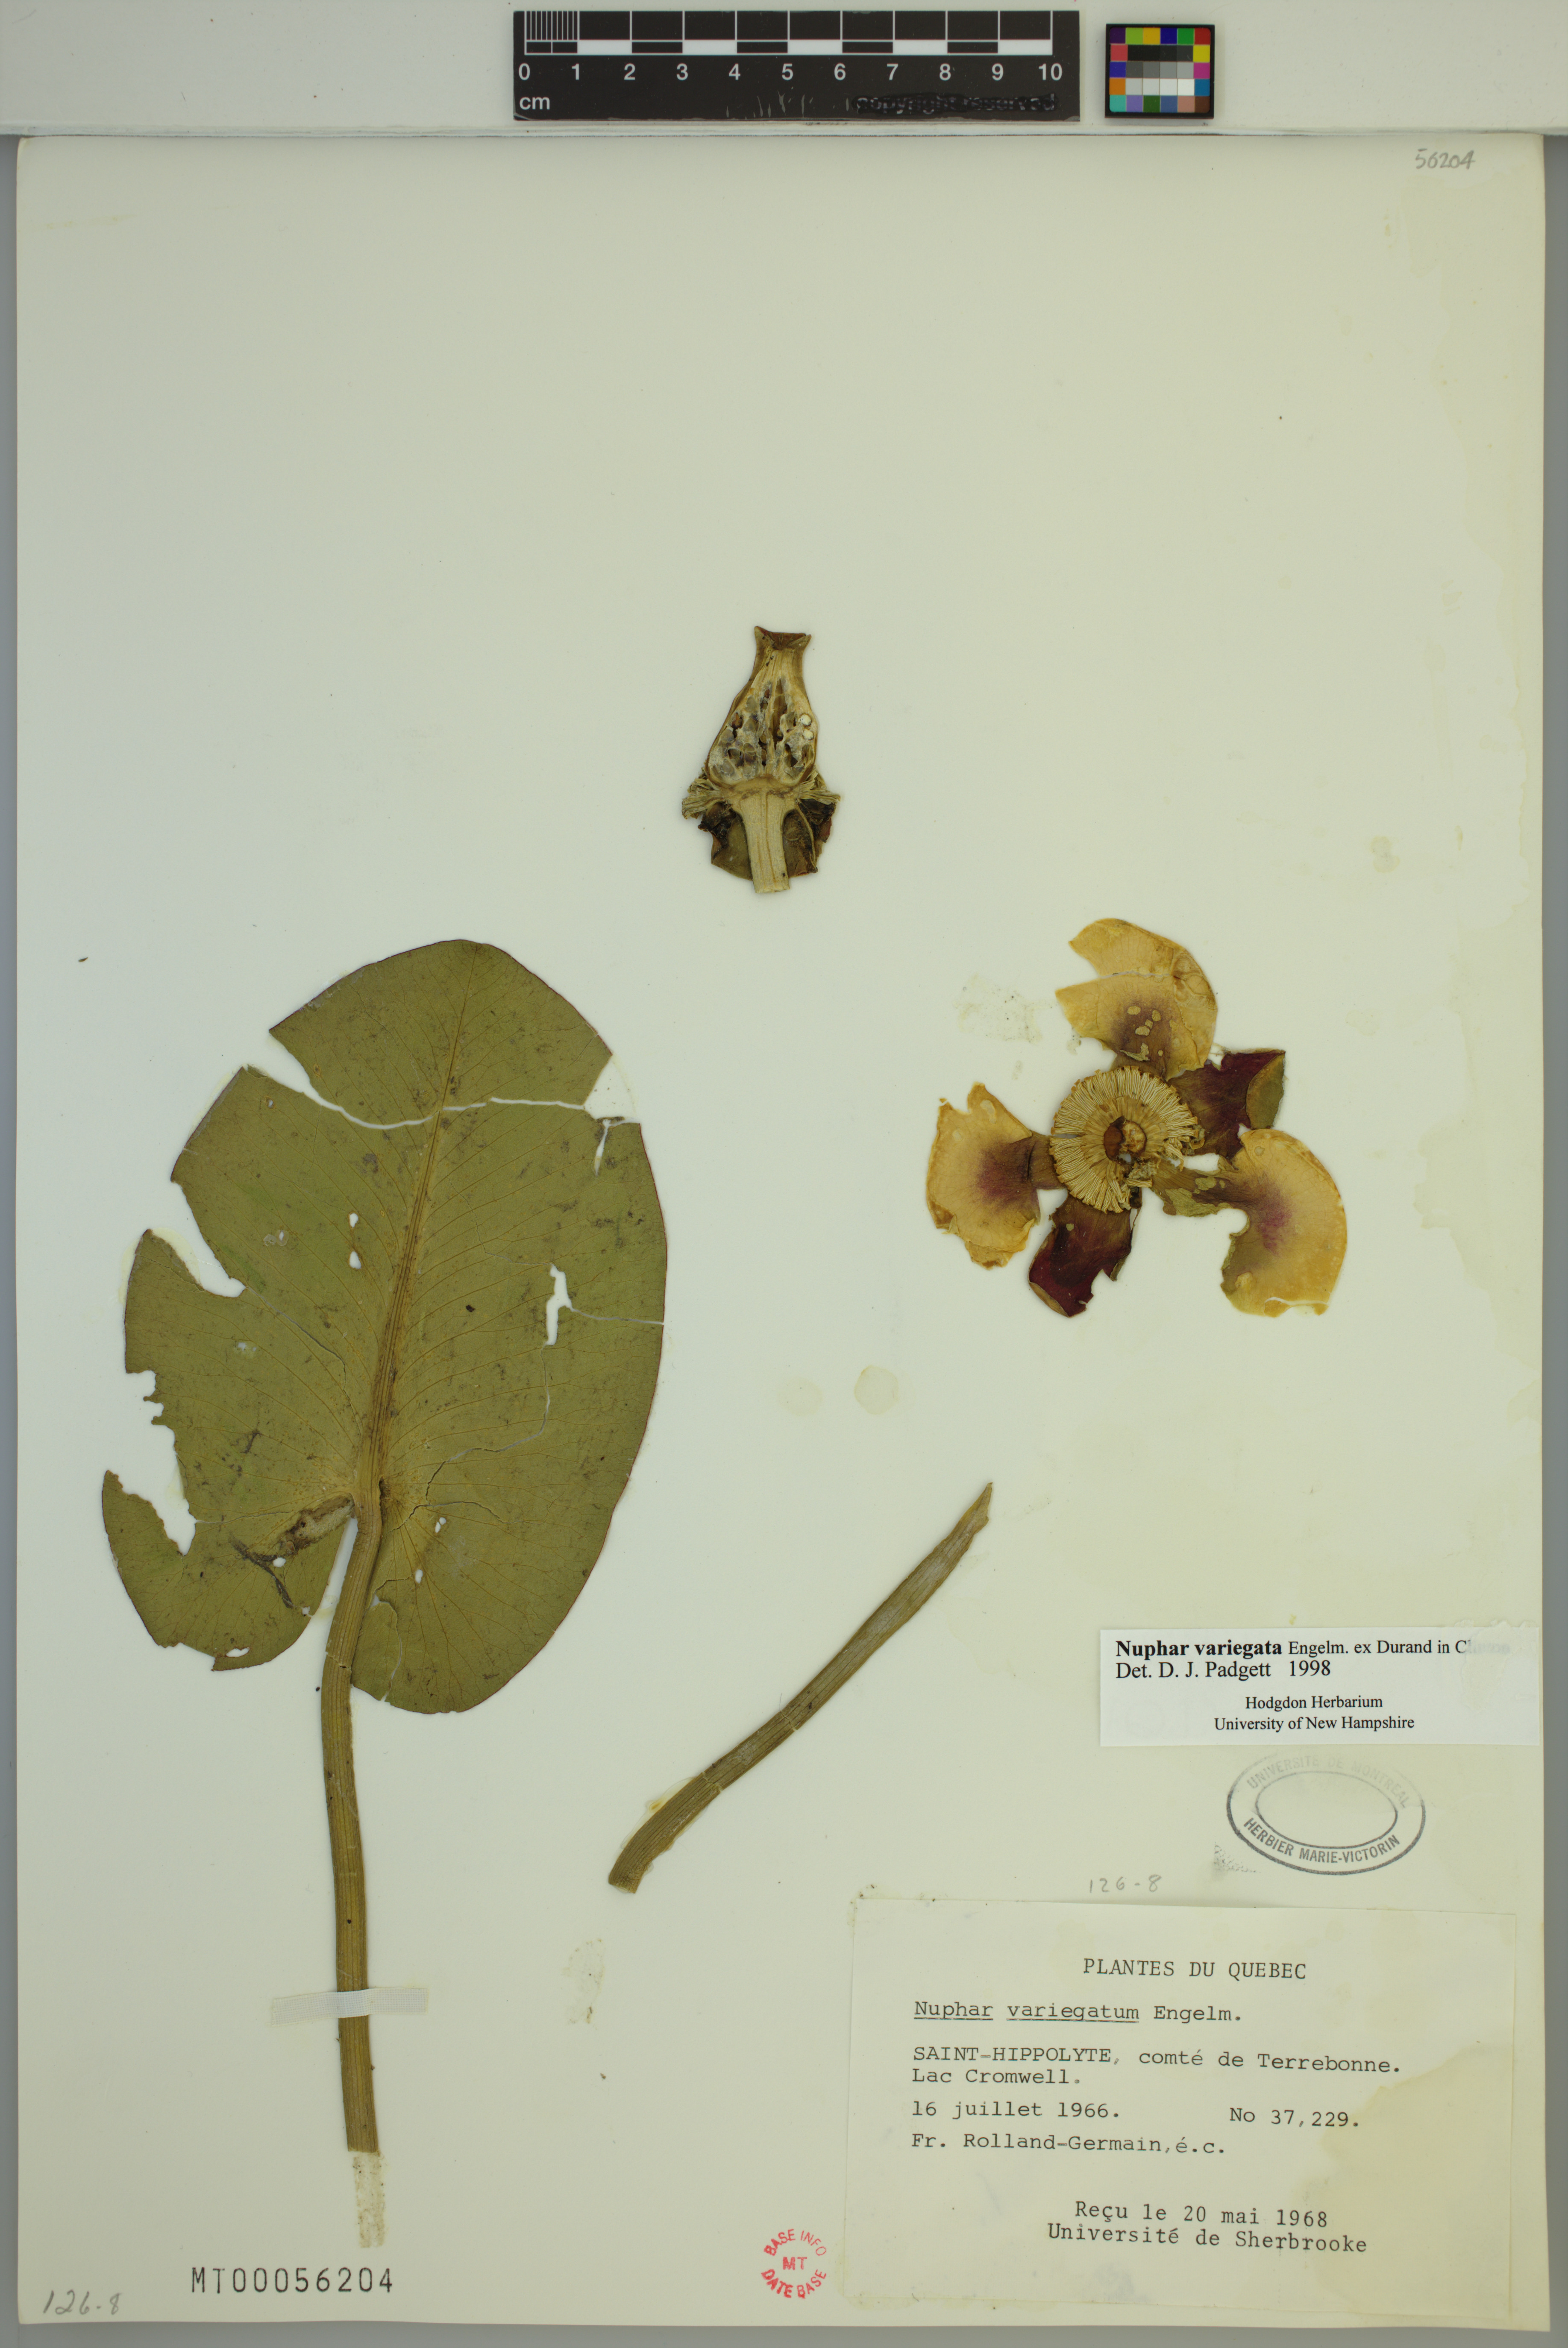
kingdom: Plantae
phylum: Tracheophyta
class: Magnoliopsida
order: Nymphaeales
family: Nymphaeaceae
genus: Nuphar
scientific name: Nuphar variegata
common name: Beaver-root
